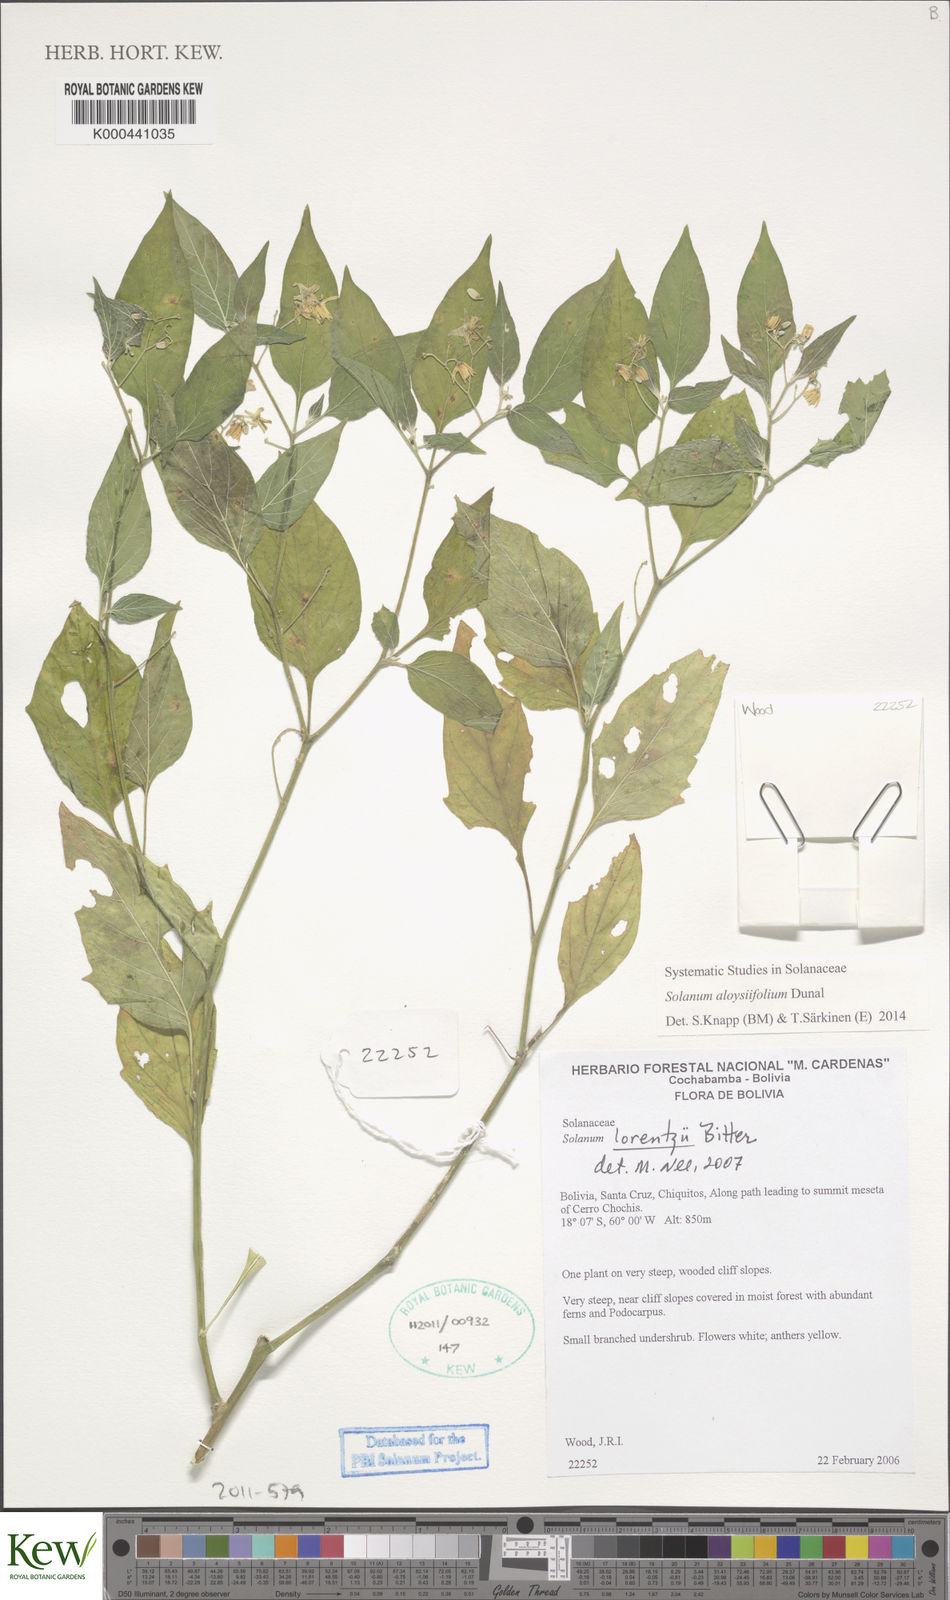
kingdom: Plantae
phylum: Tracheophyta
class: Magnoliopsida
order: Solanales
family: Solanaceae
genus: Solanum
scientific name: Solanum aloysiifolium
